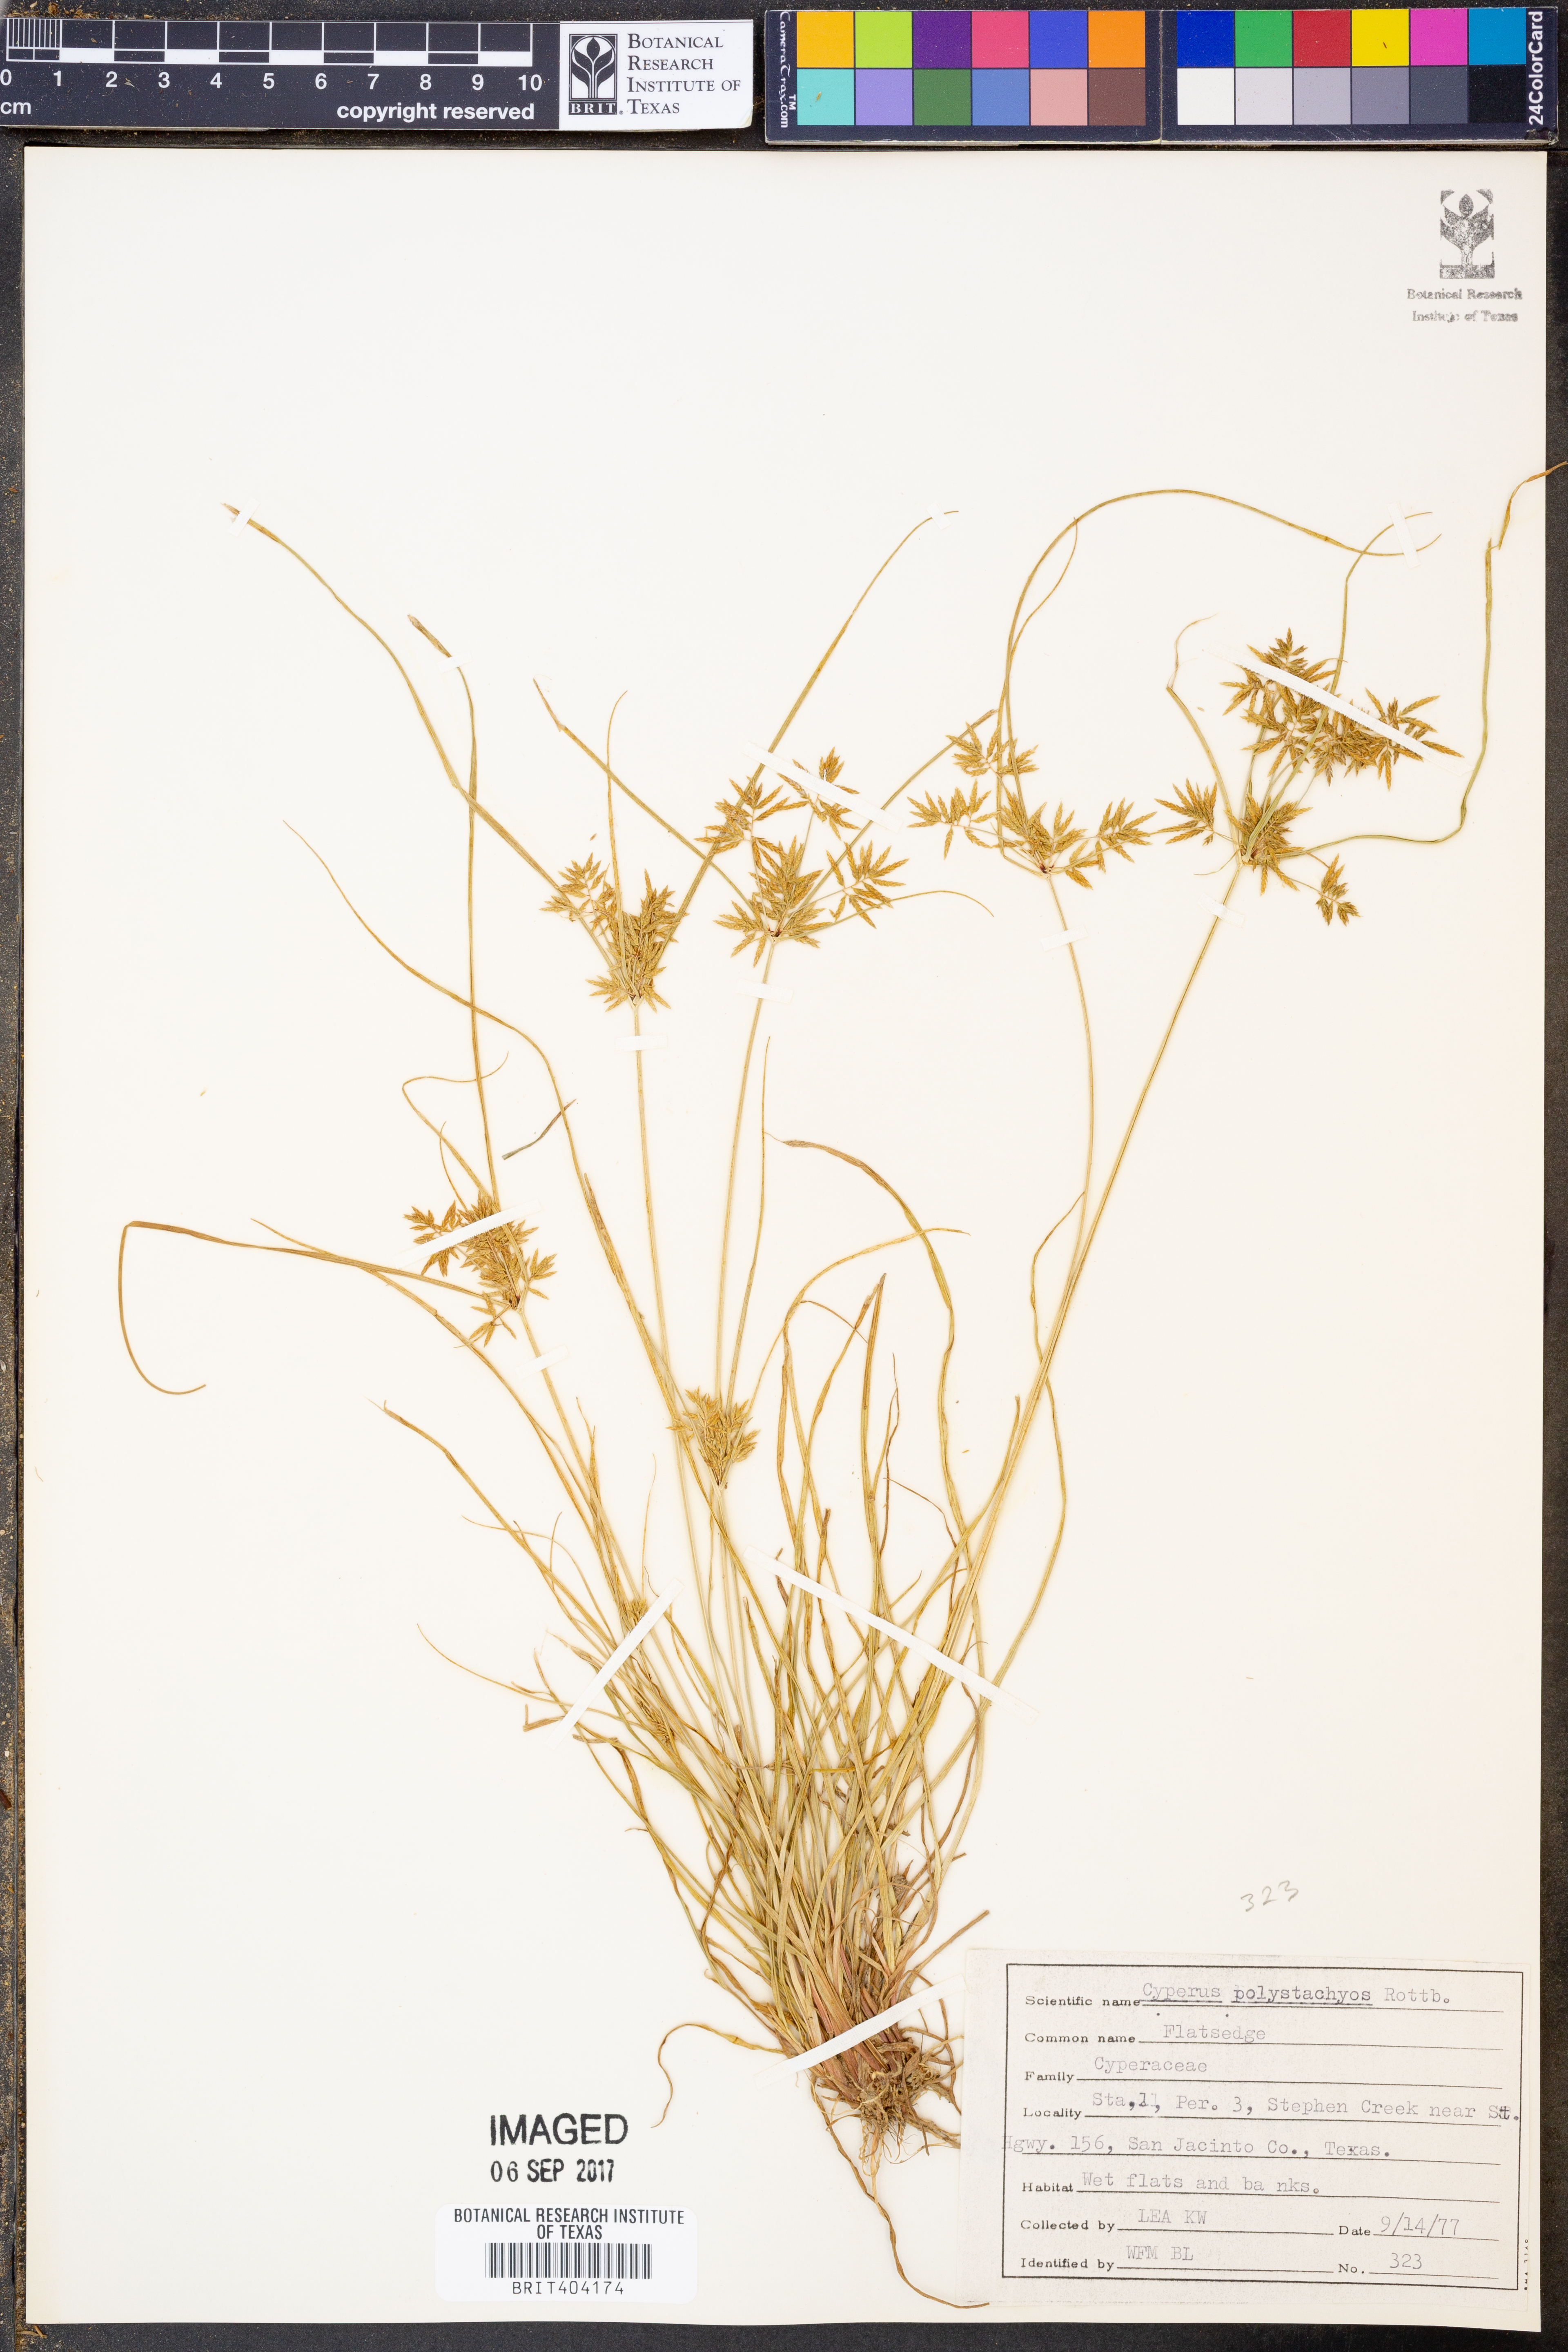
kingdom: Plantae
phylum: Tracheophyta
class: Liliopsida
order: Poales
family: Cyperaceae
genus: Cyperus
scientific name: Cyperus polystachyos
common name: Bunchy flat sedge
